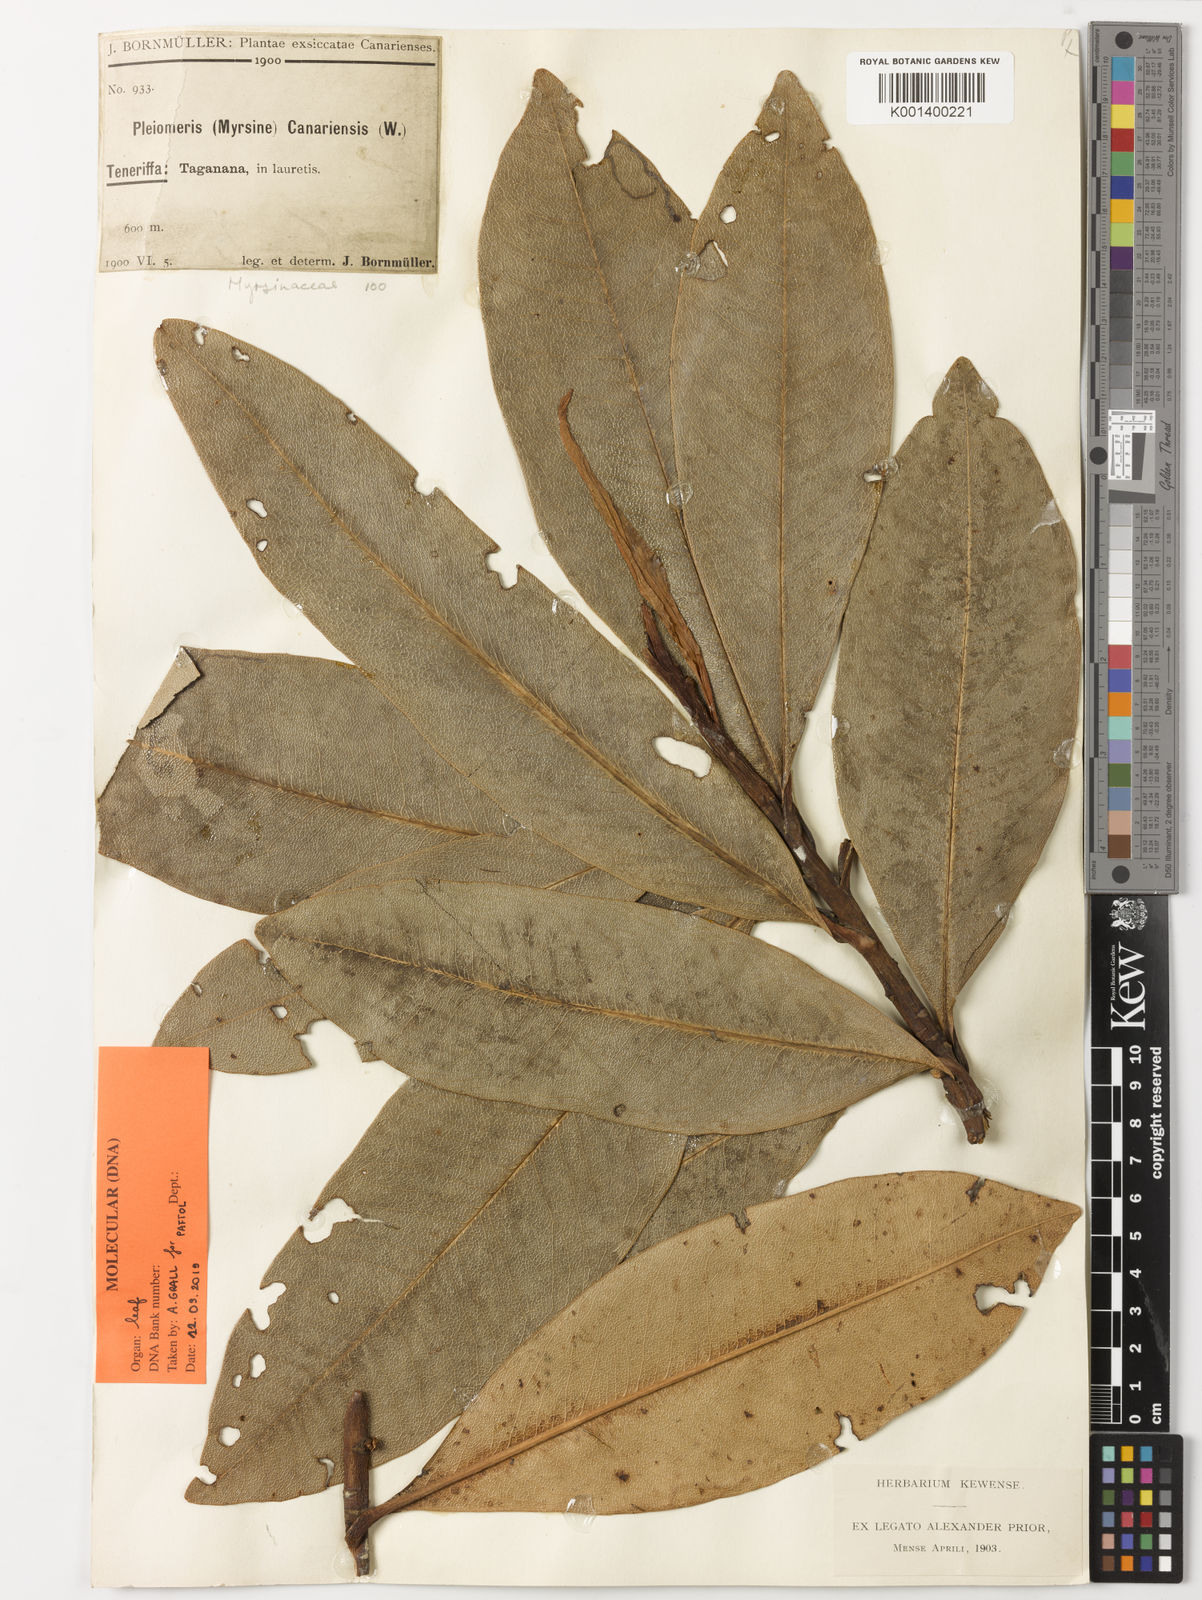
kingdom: Plantae
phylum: Tracheophyta
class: Magnoliopsida
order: Ericales
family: Primulaceae
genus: Pleiomeris
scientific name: Pleiomeris canariensis
